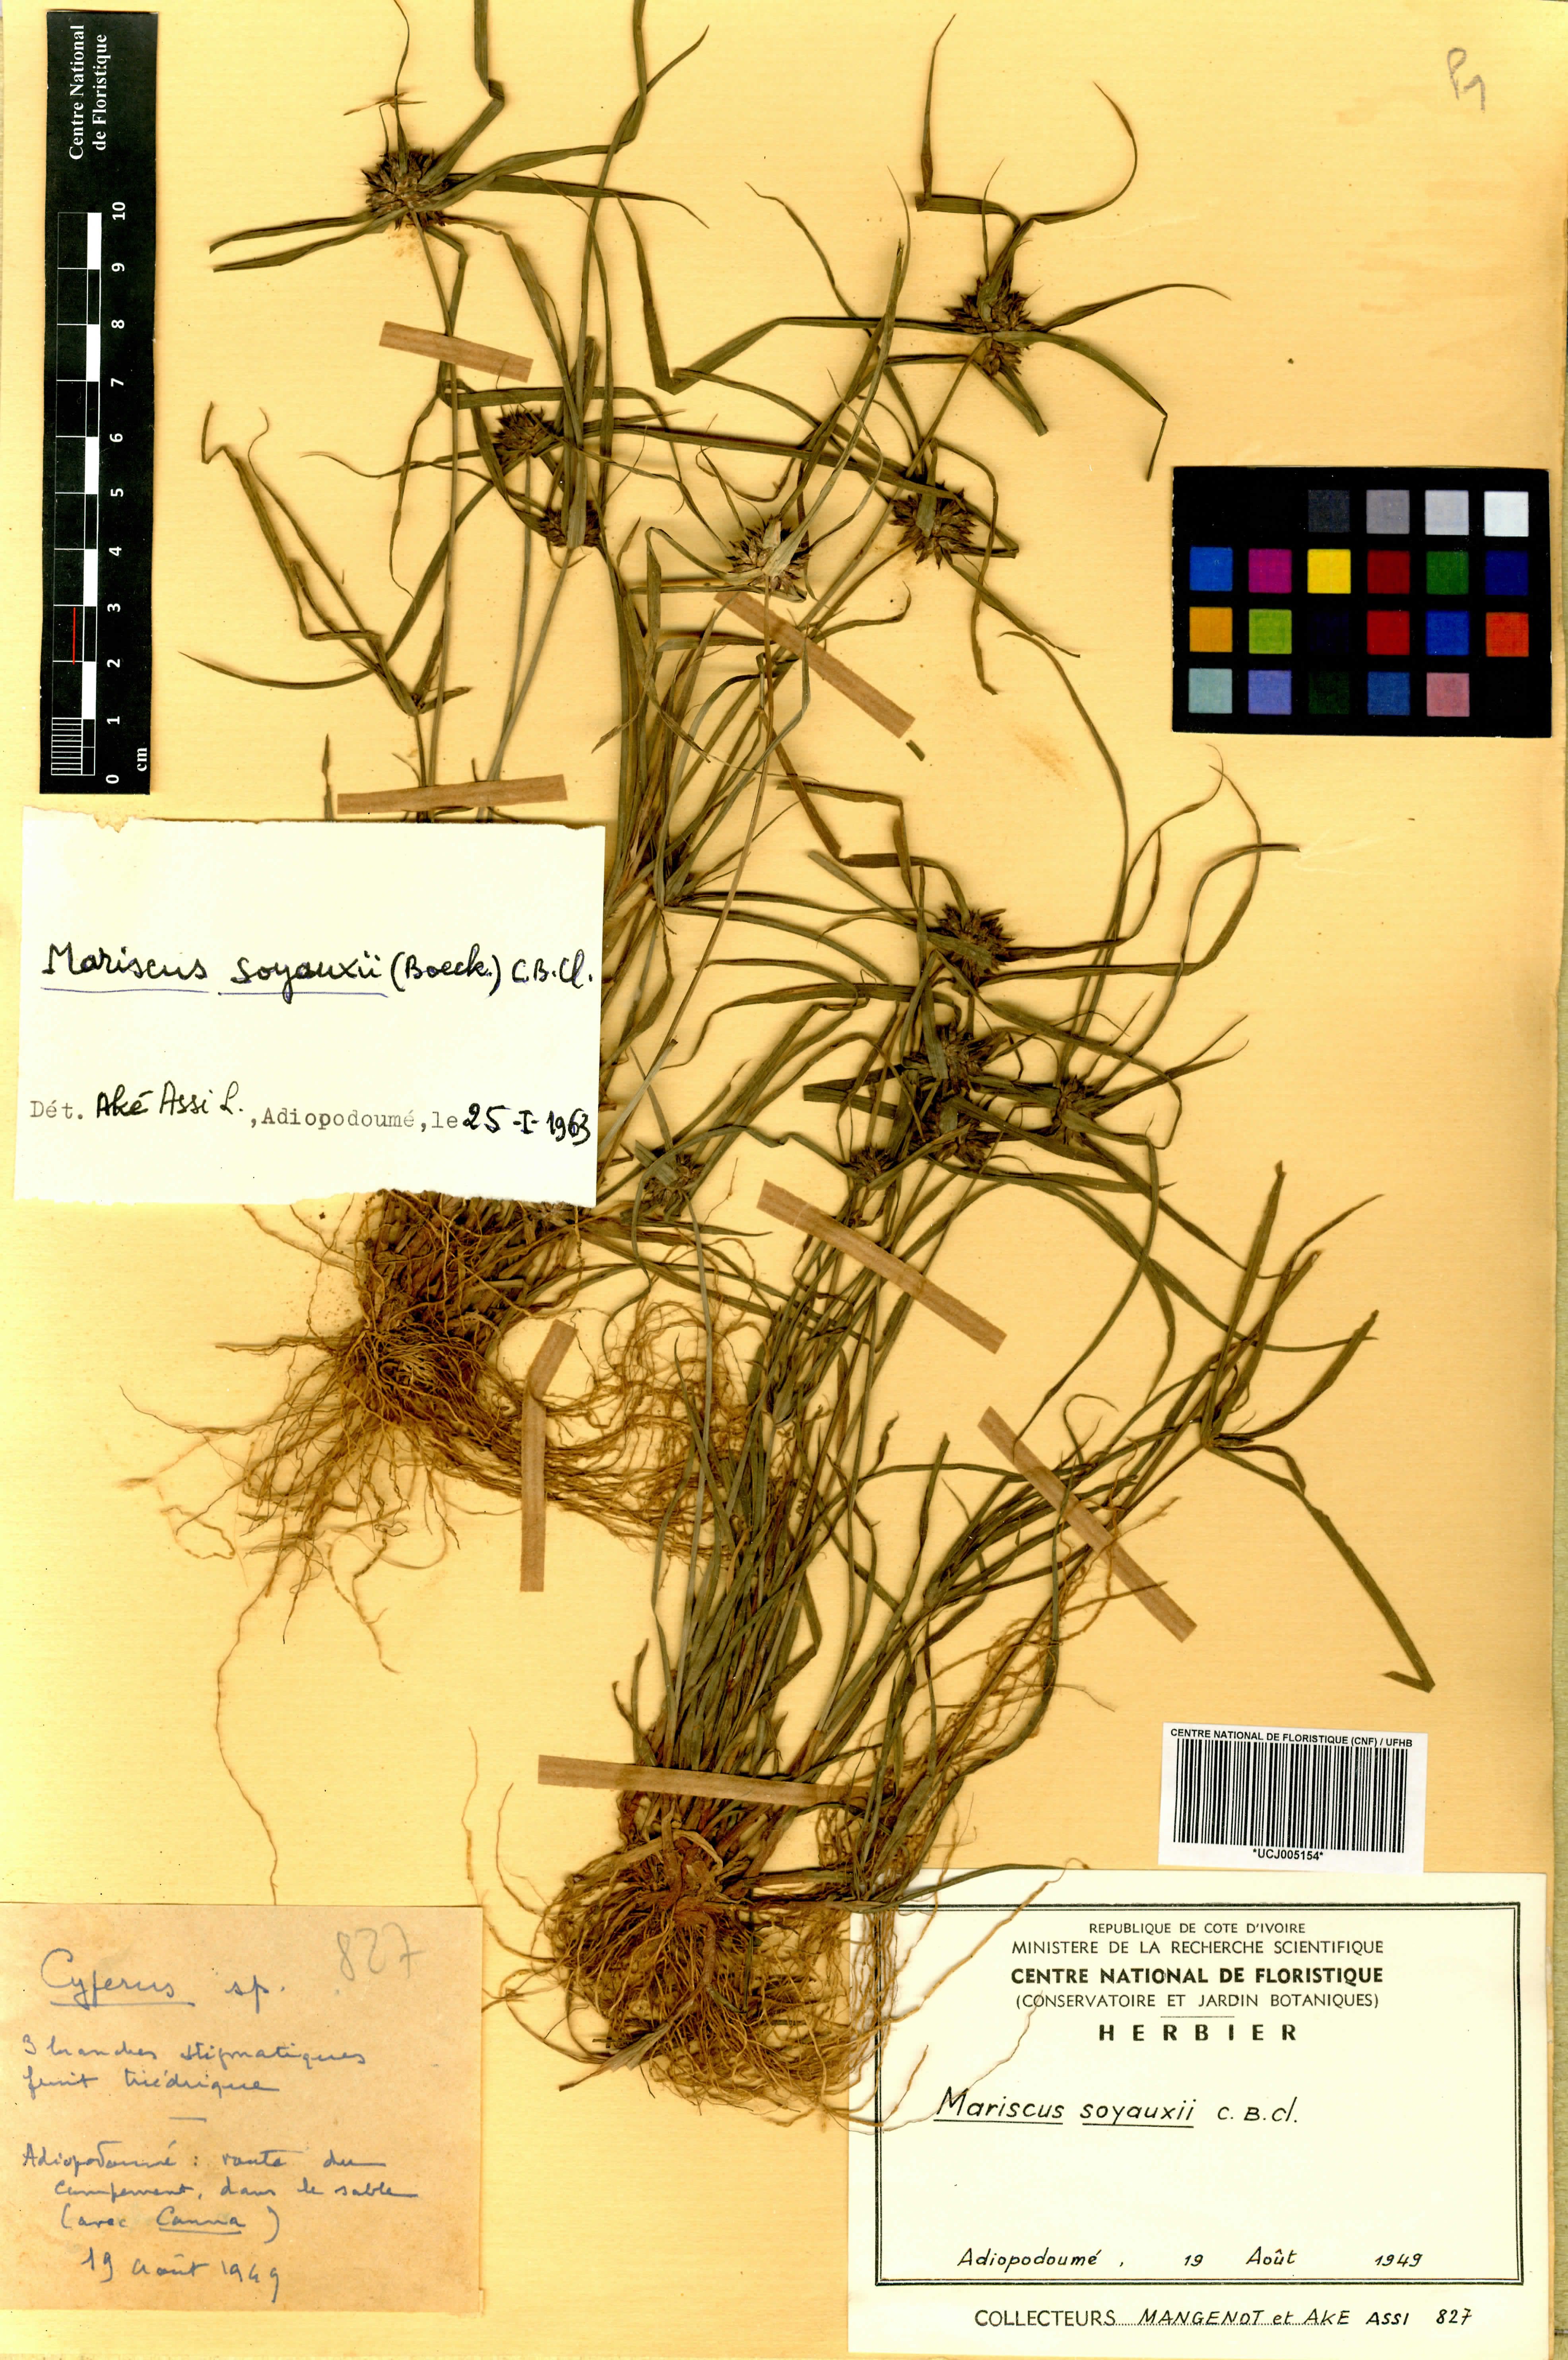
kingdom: Plantae
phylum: Tracheophyta
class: Liliopsida
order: Poales
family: Cyperaceae
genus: Cyperus
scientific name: Cyperus soyauxii
